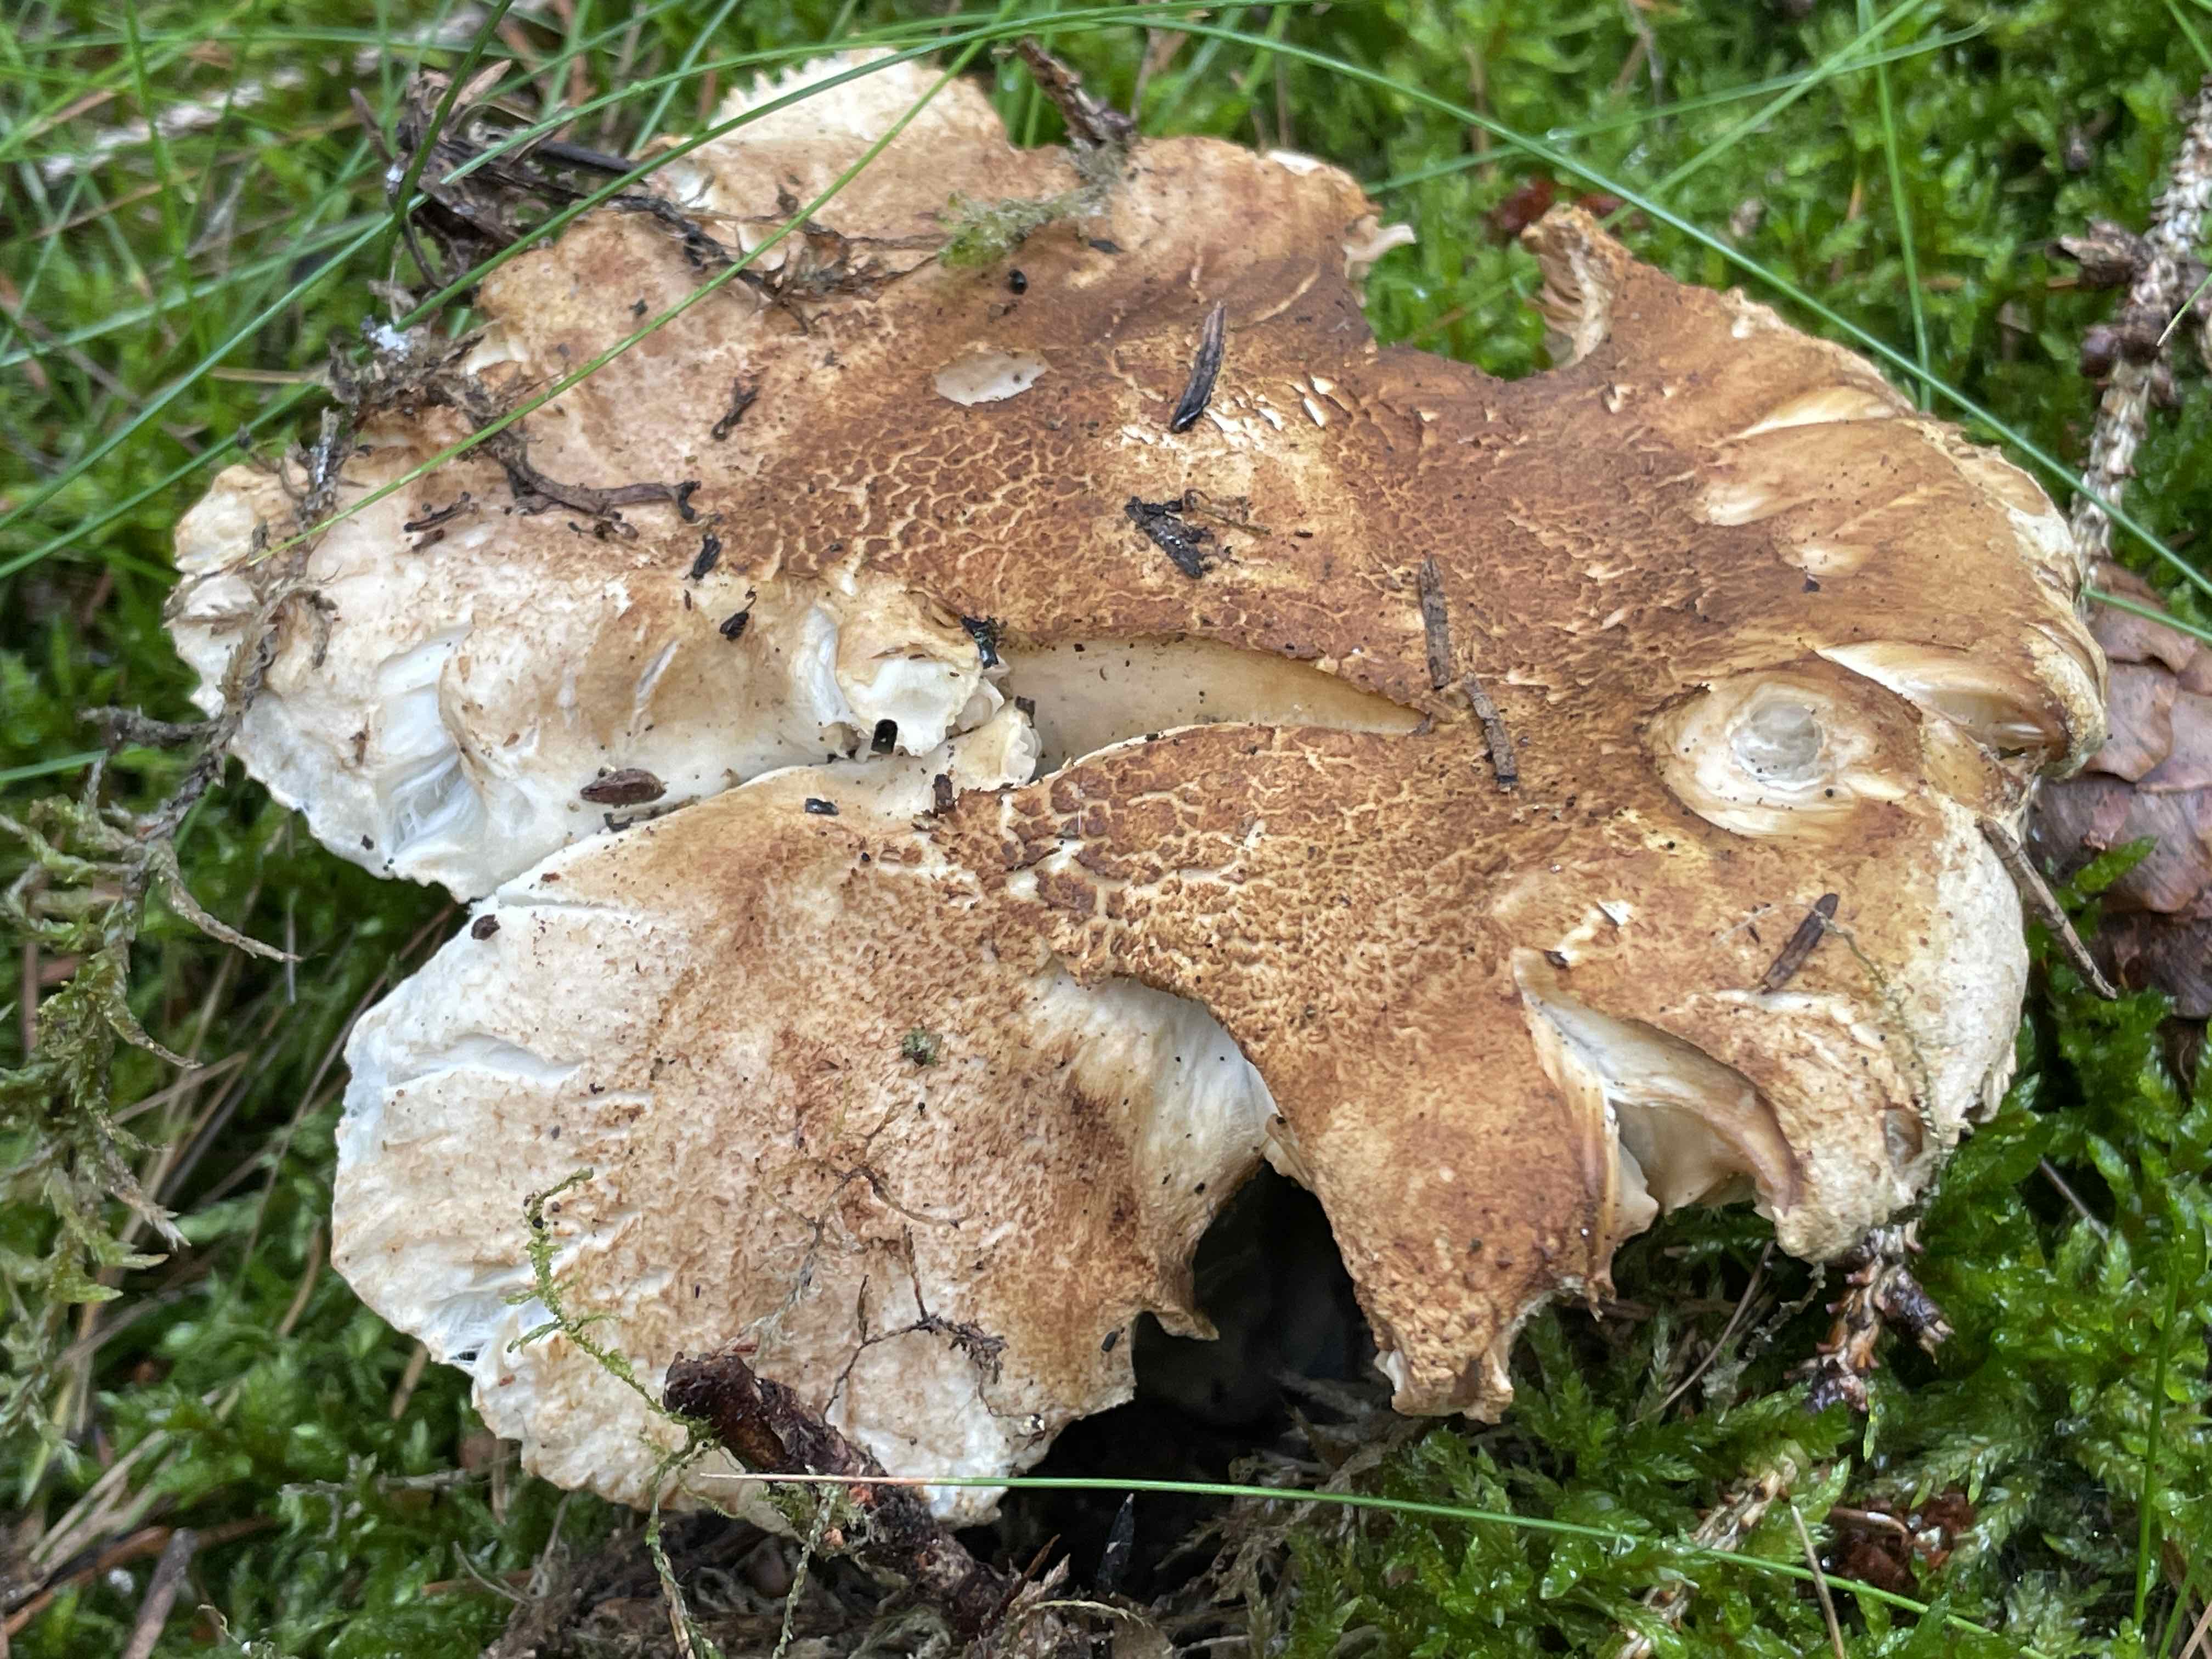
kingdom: Fungi
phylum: Basidiomycota
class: Agaricomycetes
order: Agaricales
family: Tricholomataceae
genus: Tricholoma
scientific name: Tricholoma apium
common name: suppe-ridderhat
